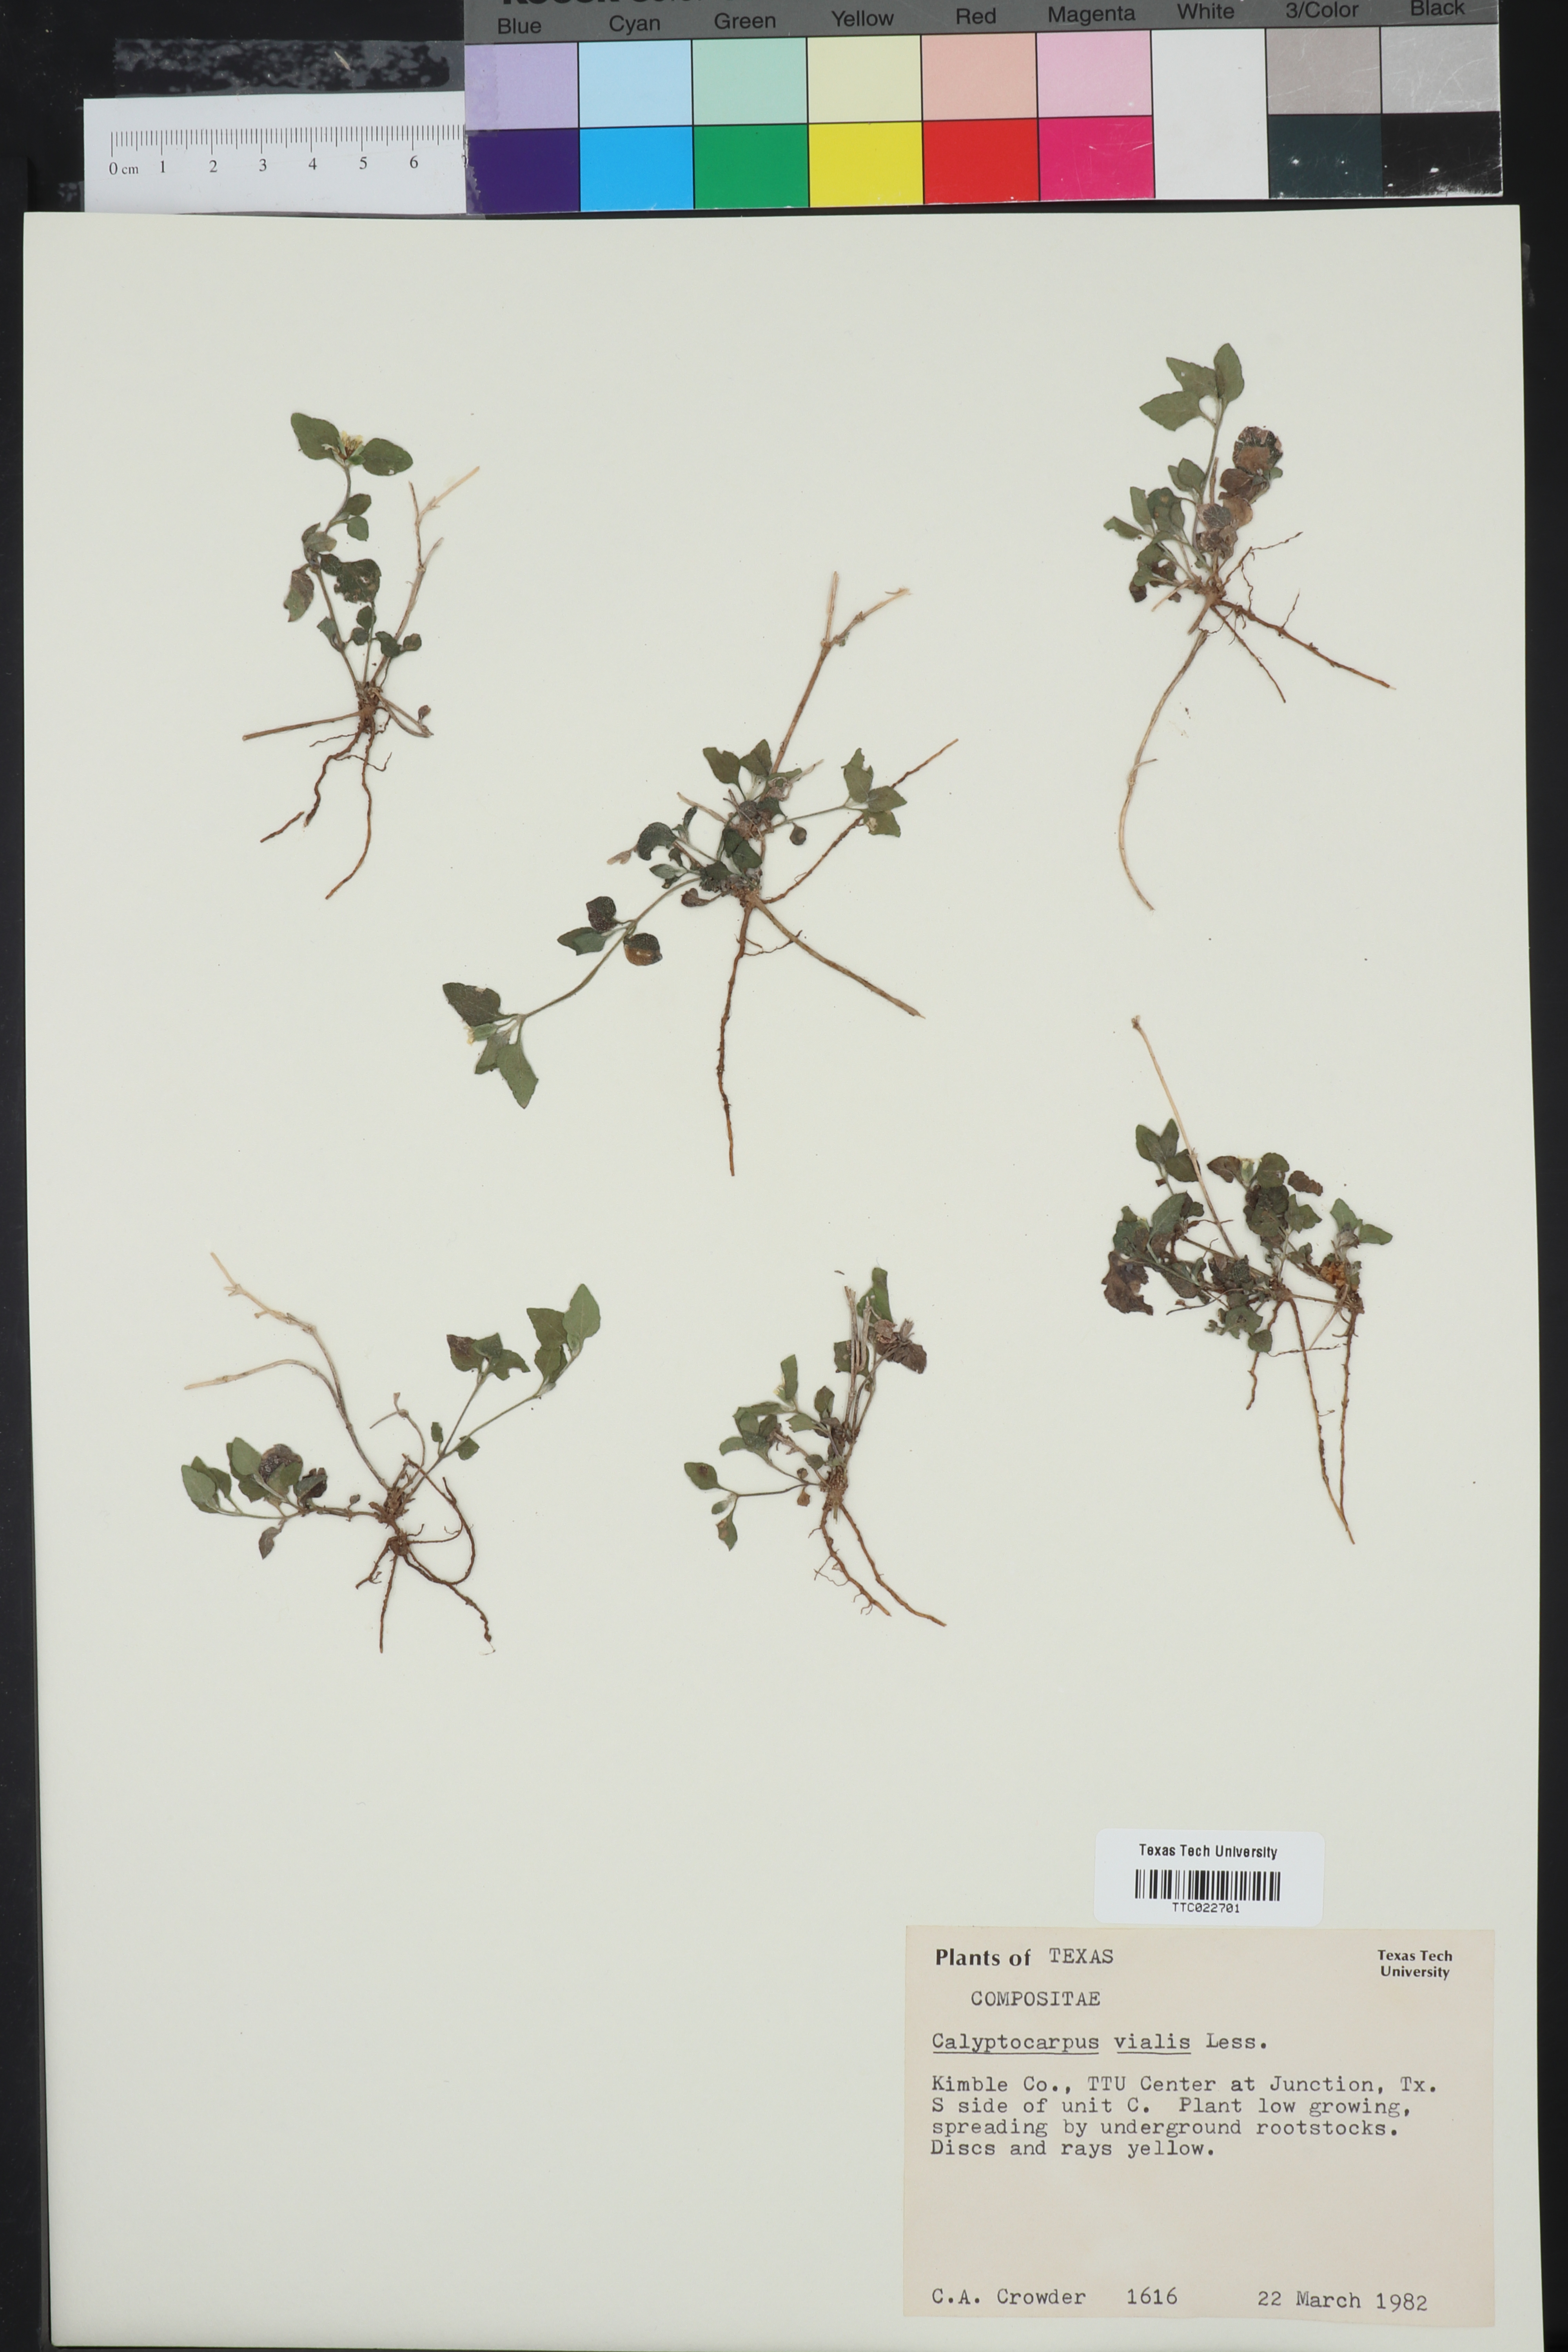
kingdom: Plantae
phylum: Tracheophyta
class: Magnoliopsida
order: Asterales
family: Asteraceae
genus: Calyptocarpus
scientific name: Calyptocarpus vialis
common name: Straggler daisy
